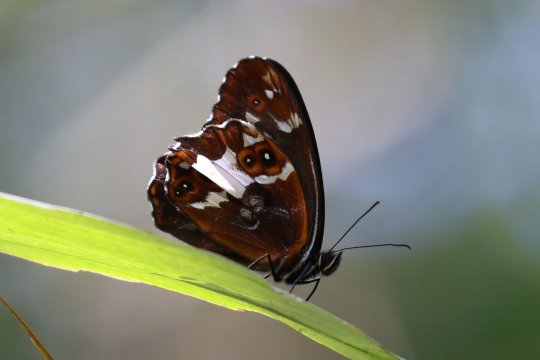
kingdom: Animalia
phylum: Arthropoda
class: Insecta
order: Lepidoptera
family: Nymphalidae
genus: Dioriste
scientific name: Dioriste leucospilos
